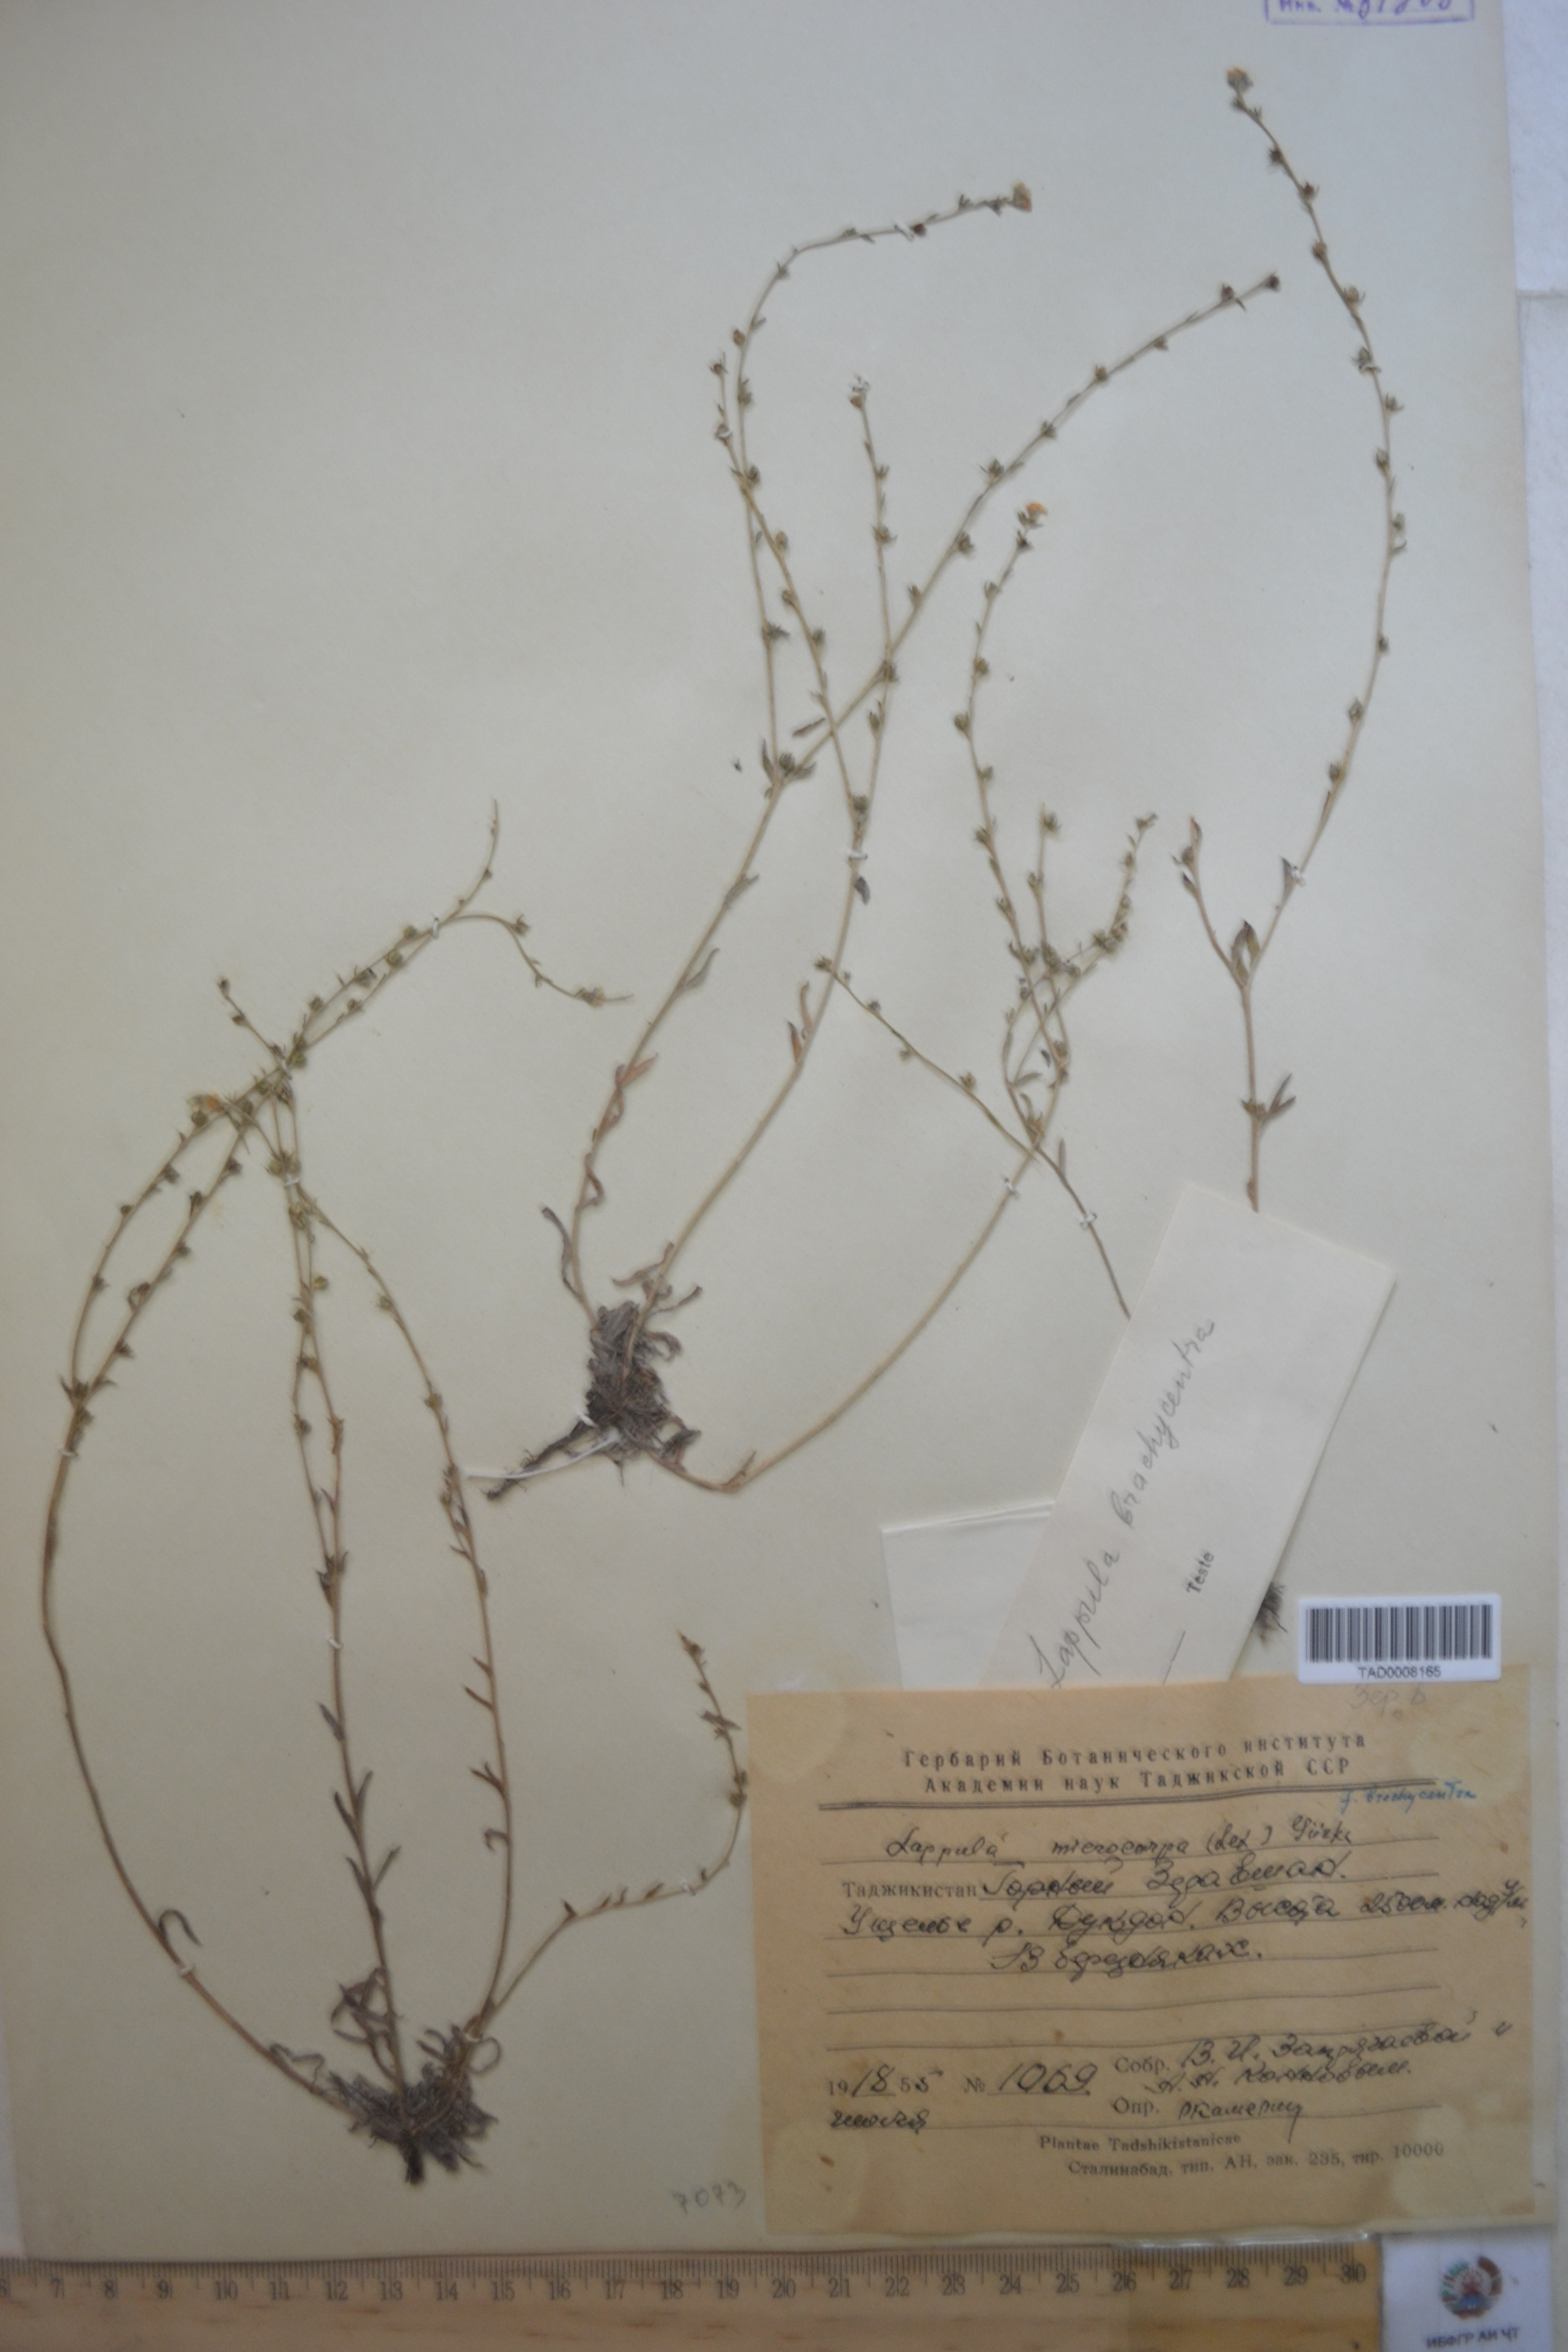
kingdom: Plantae
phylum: Tracheophyta
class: Magnoliopsida
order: Boraginales
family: Boraginaceae
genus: Lappula
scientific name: Lappula microcarpa
